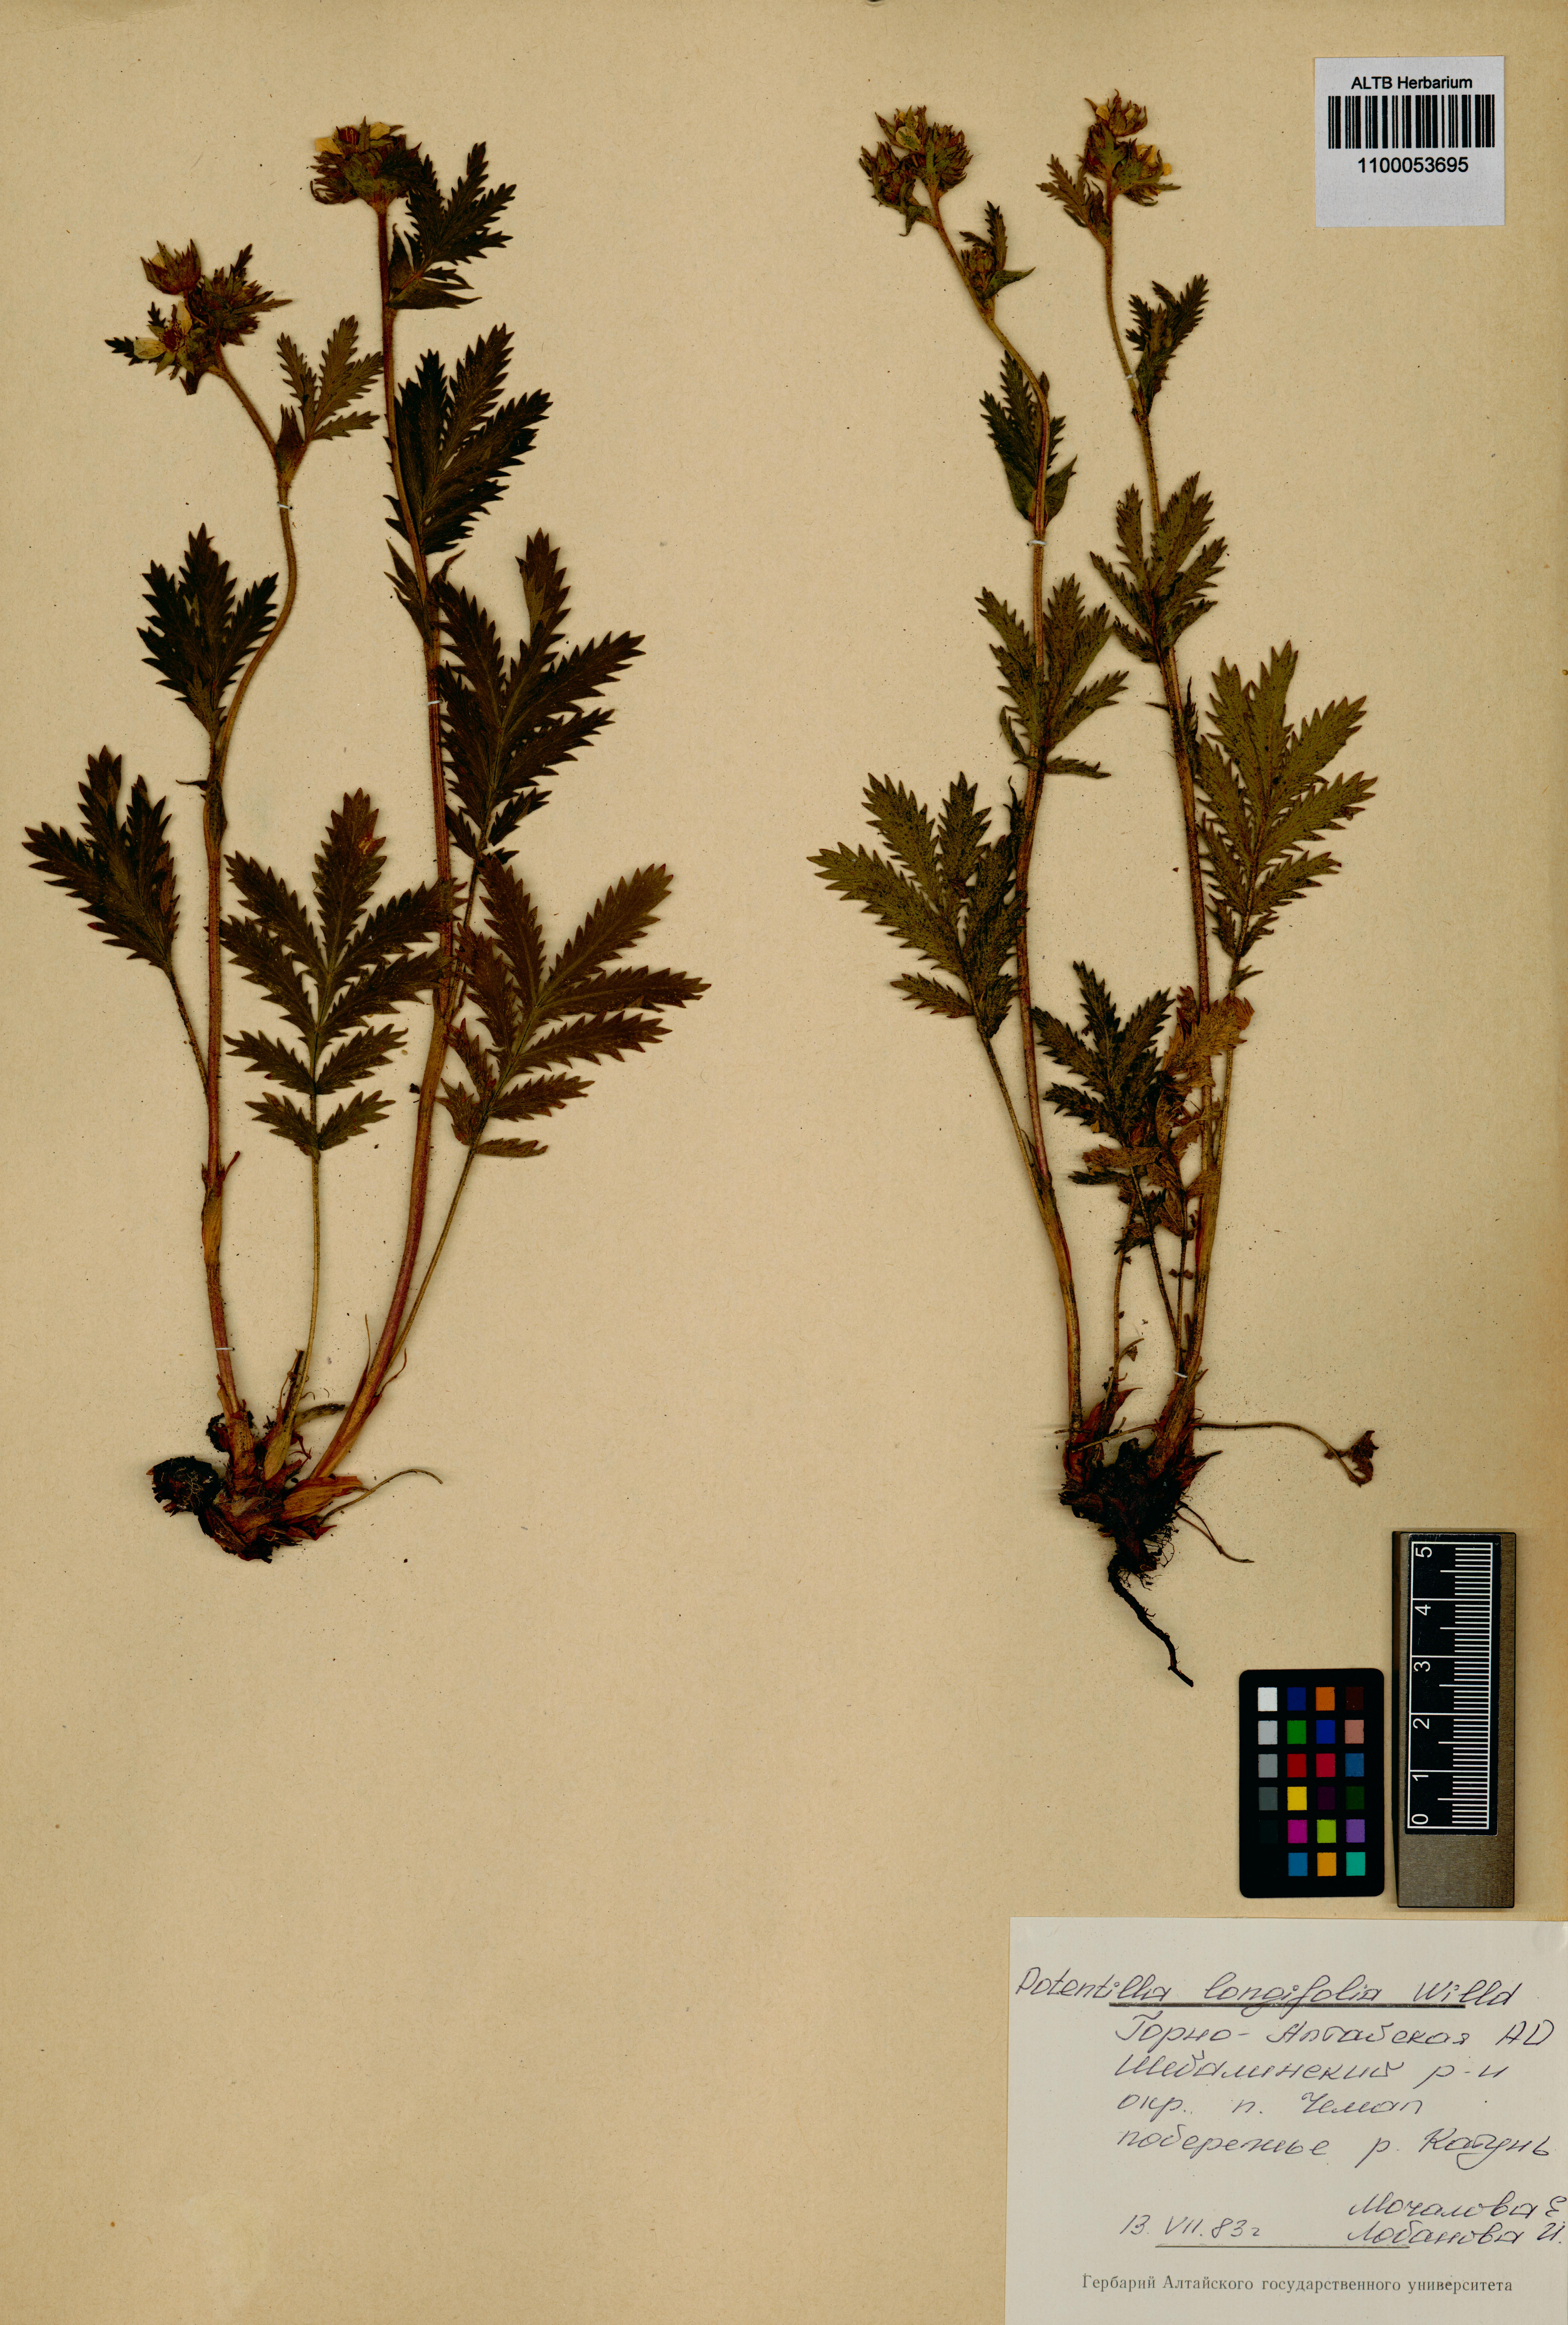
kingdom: Plantae
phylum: Tracheophyta
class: Magnoliopsida
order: Rosales
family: Rosaceae
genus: Potentilla
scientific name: Potentilla longifolia
